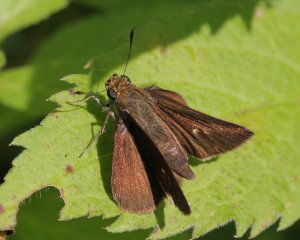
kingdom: Animalia
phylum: Arthropoda
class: Insecta
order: Lepidoptera
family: Hesperiidae
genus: Euphyes
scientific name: Euphyes vestris
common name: Dun Skipper
